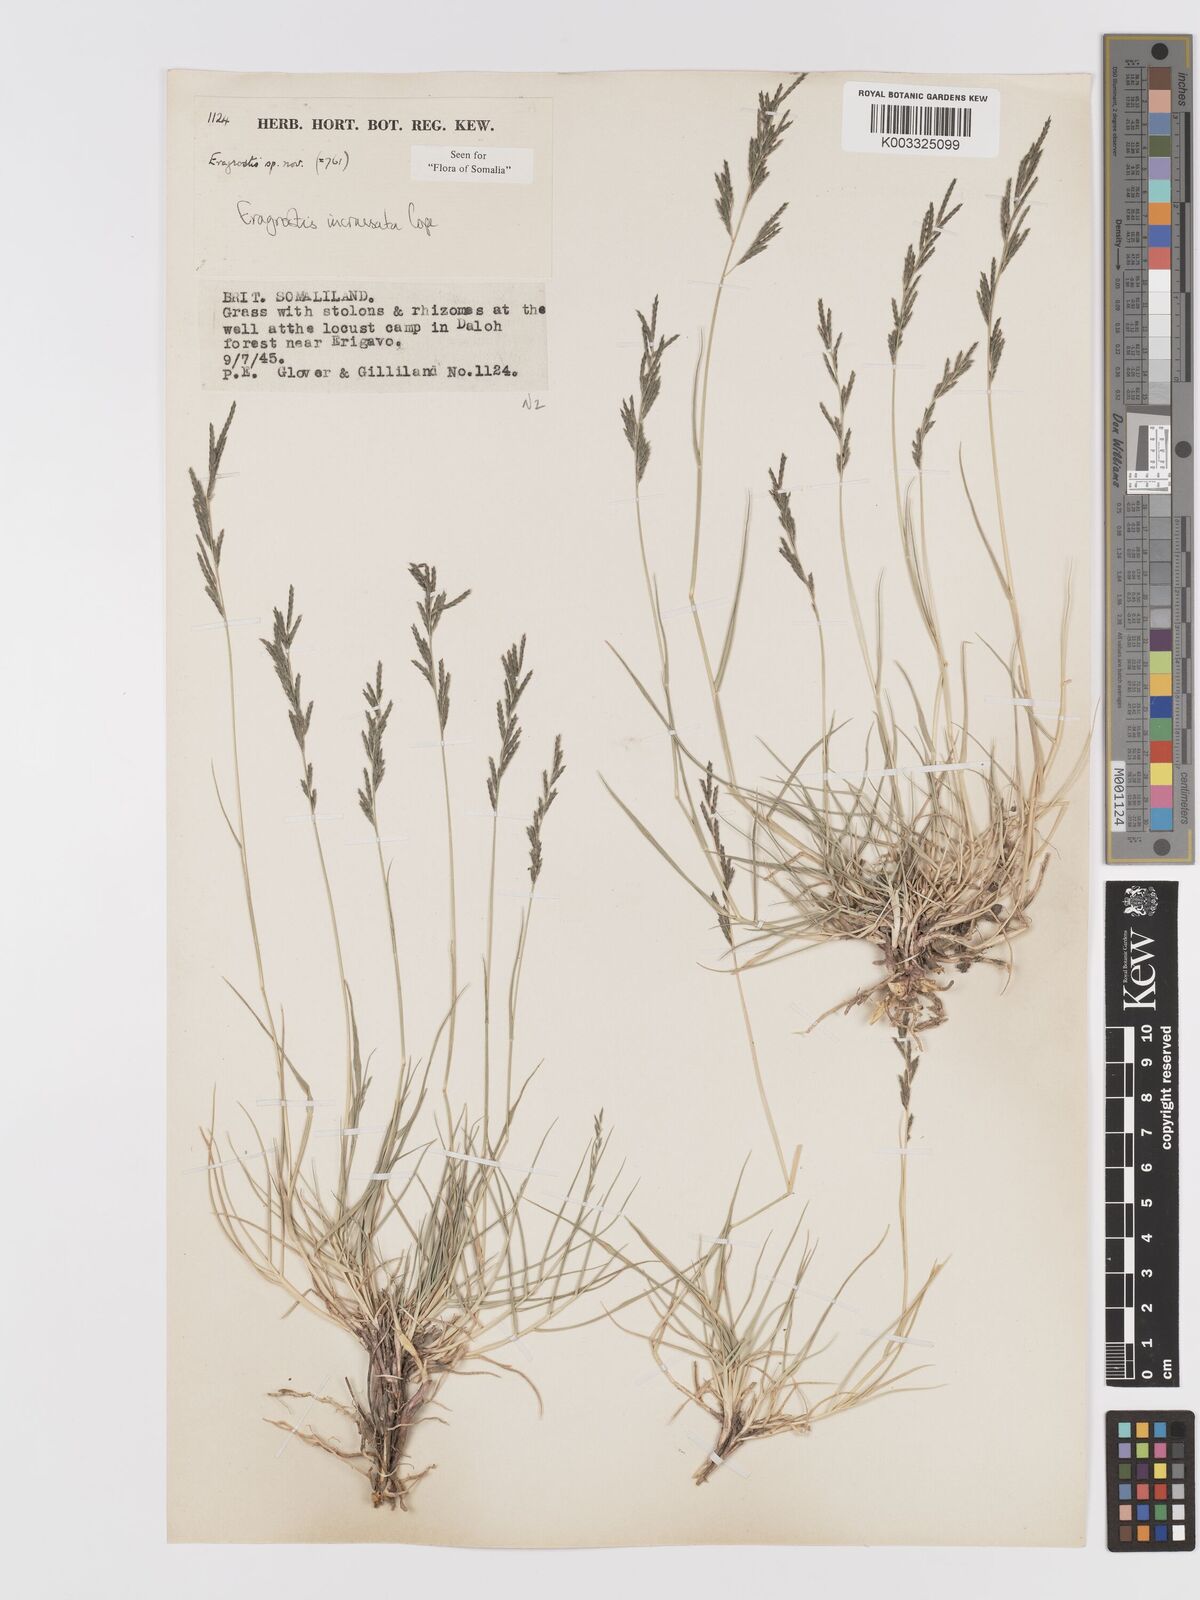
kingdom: Plantae
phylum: Tracheophyta
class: Liliopsida
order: Poales
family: Poaceae
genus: Eragrostis
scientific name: Eragrostis incrassata
